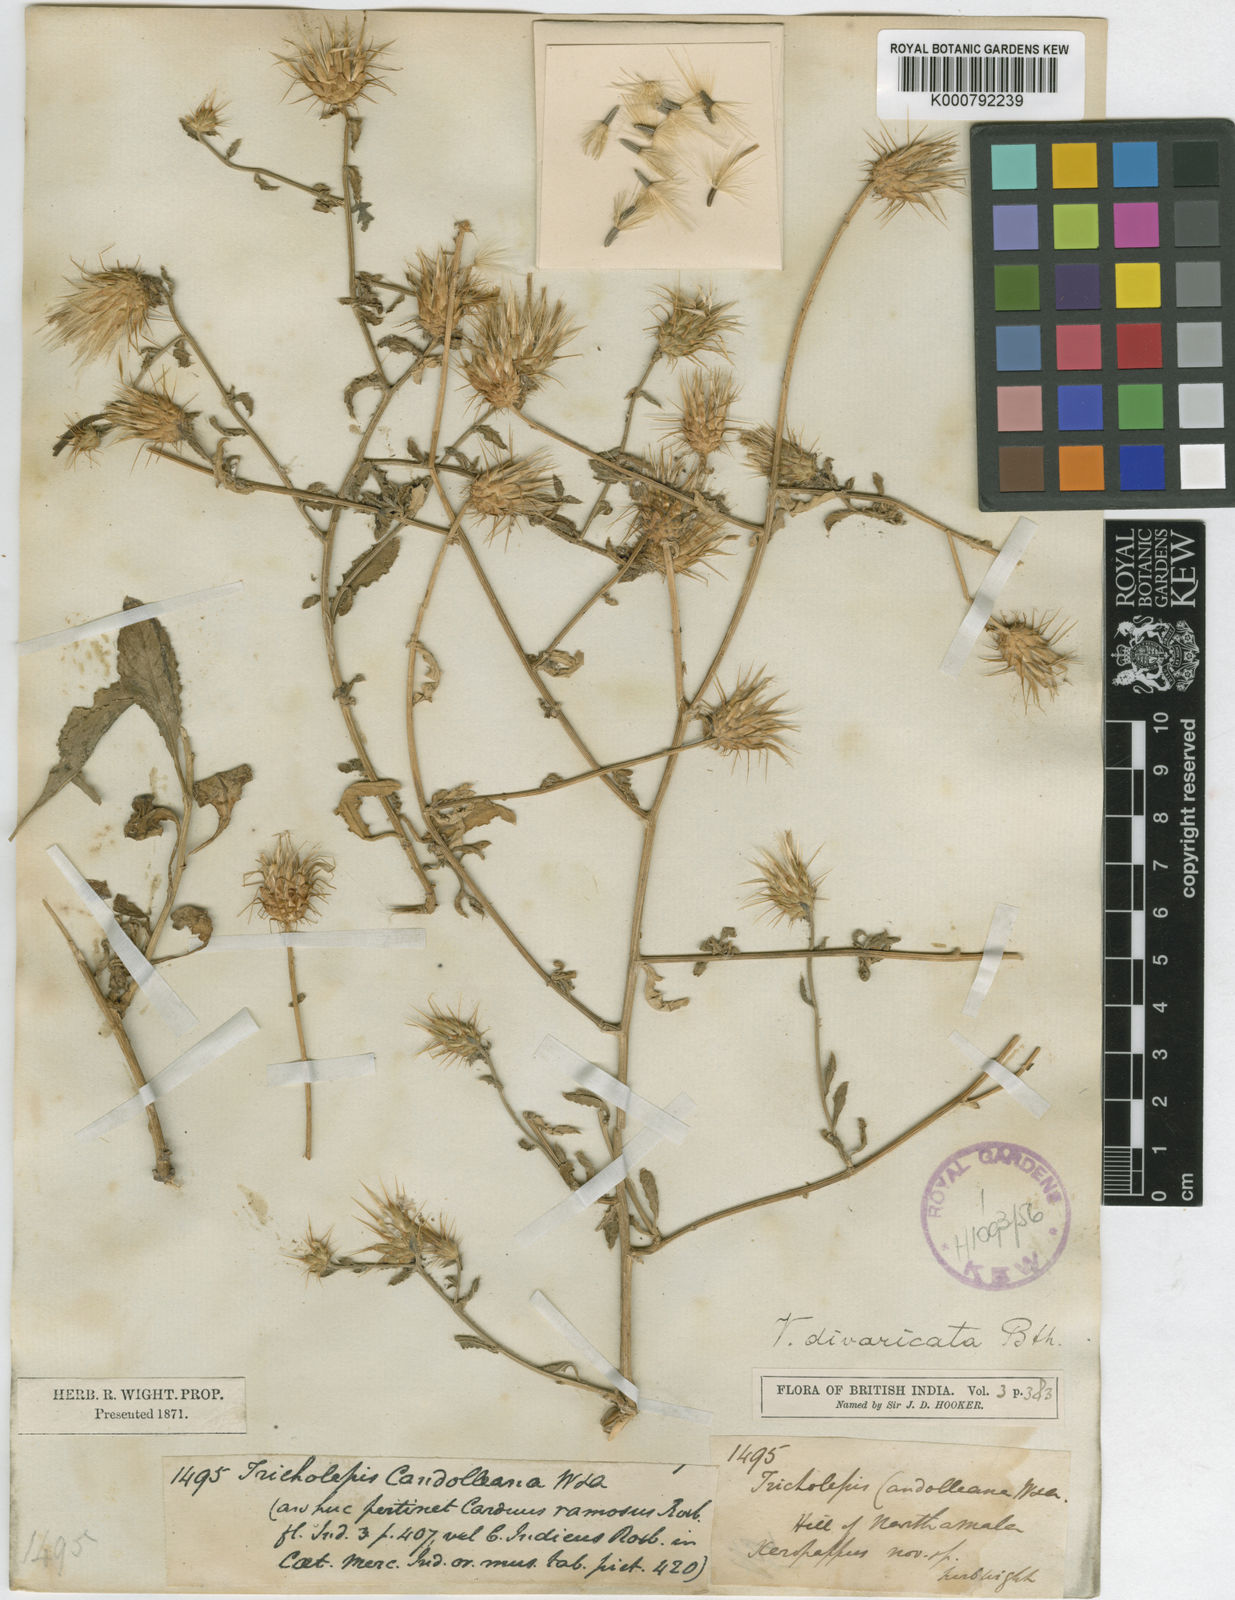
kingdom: Plantae
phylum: Tracheophyta
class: Magnoliopsida
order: Asterales
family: Asteraceae
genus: Oligochaeta
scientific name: Oligochaeta divaricata
